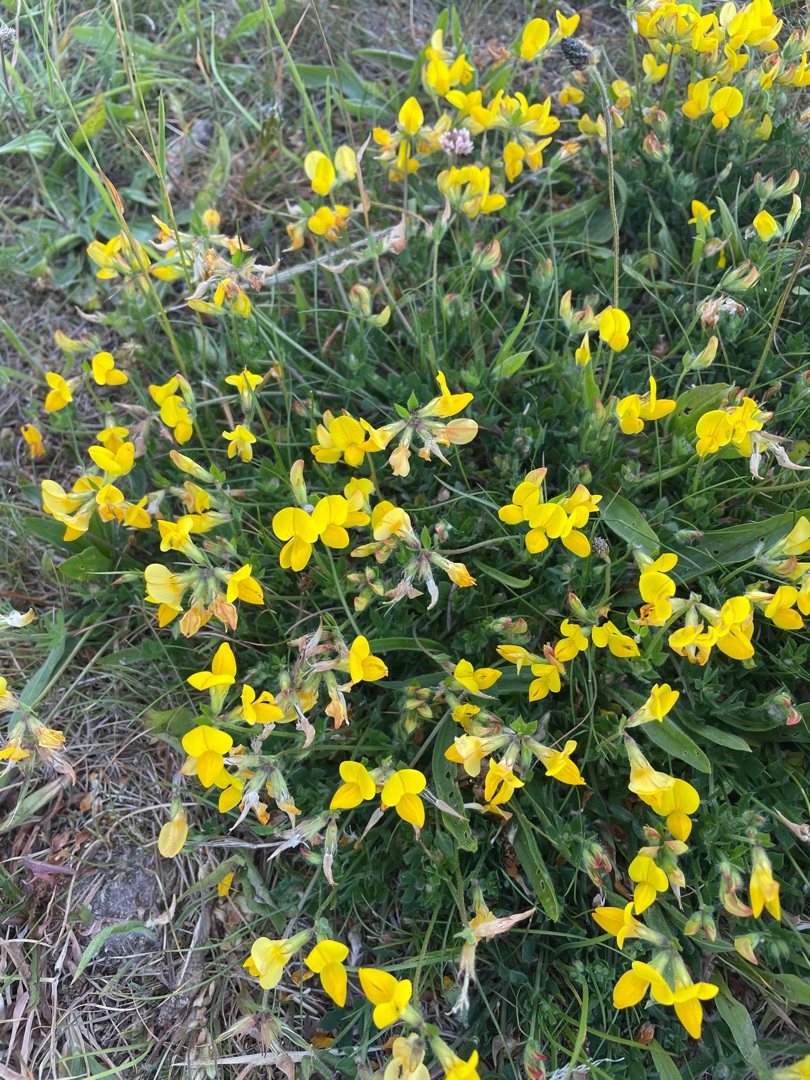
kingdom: Plantae
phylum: Tracheophyta
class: Magnoliopsida
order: Fabales
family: Fabaceae
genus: Lotus
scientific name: Lotus corniculatus
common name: Almindelig kællingetand
